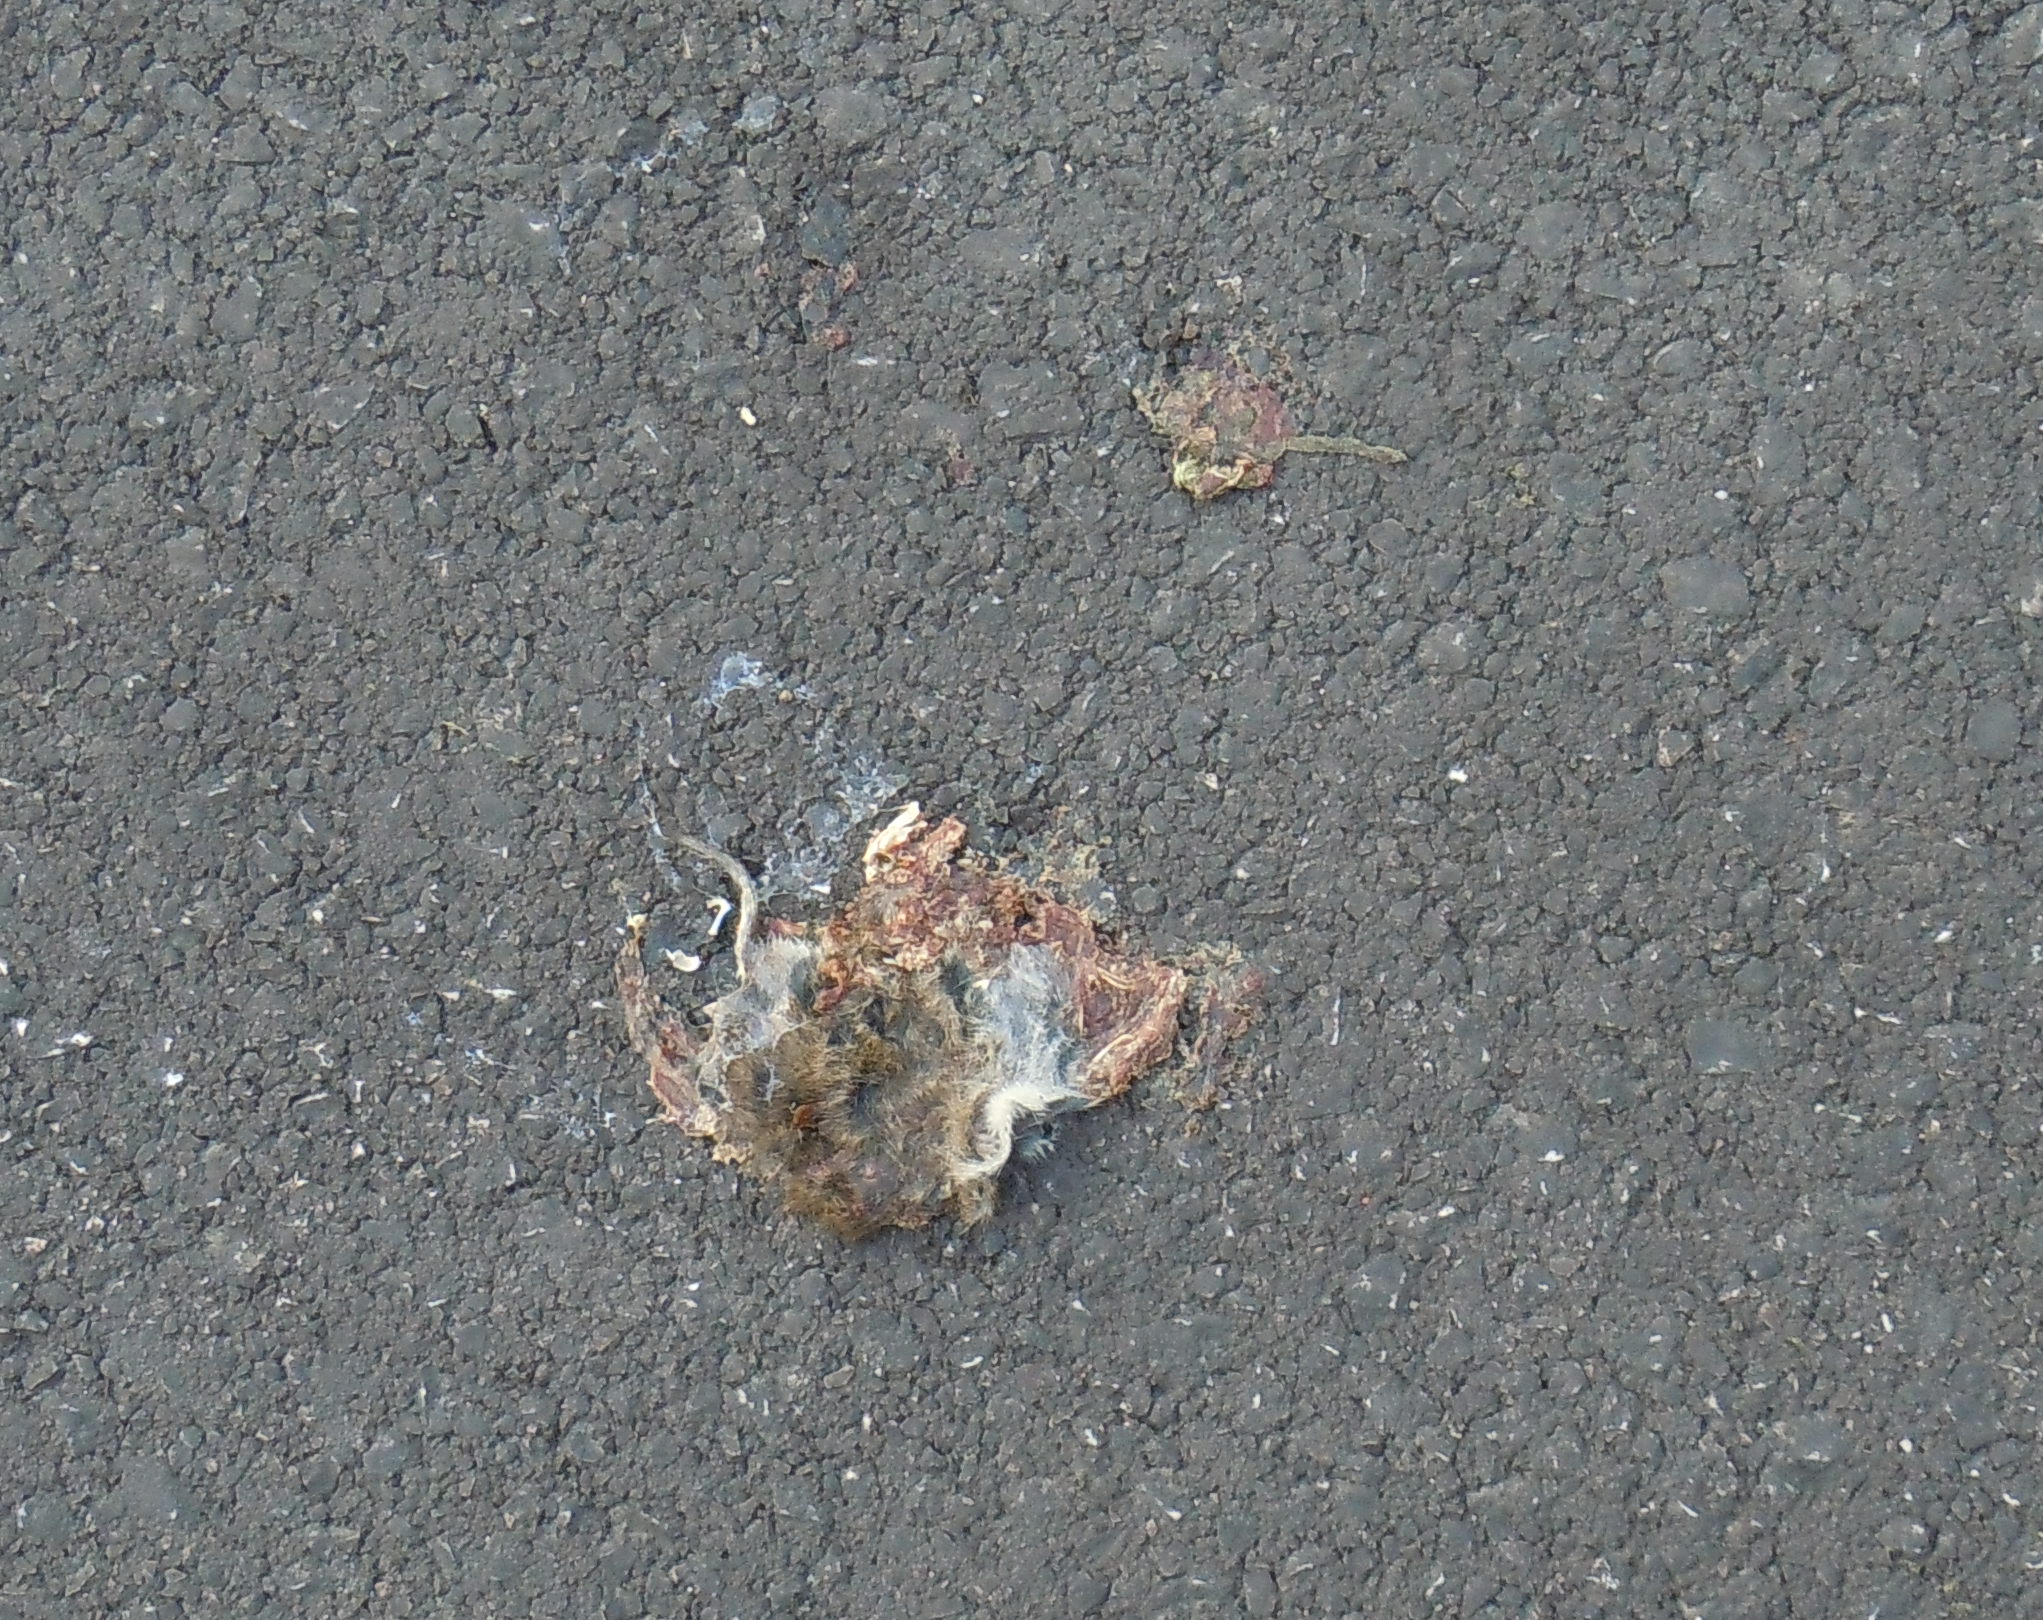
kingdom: Animalia
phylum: Chordata
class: Mammalia
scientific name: Mammalia
